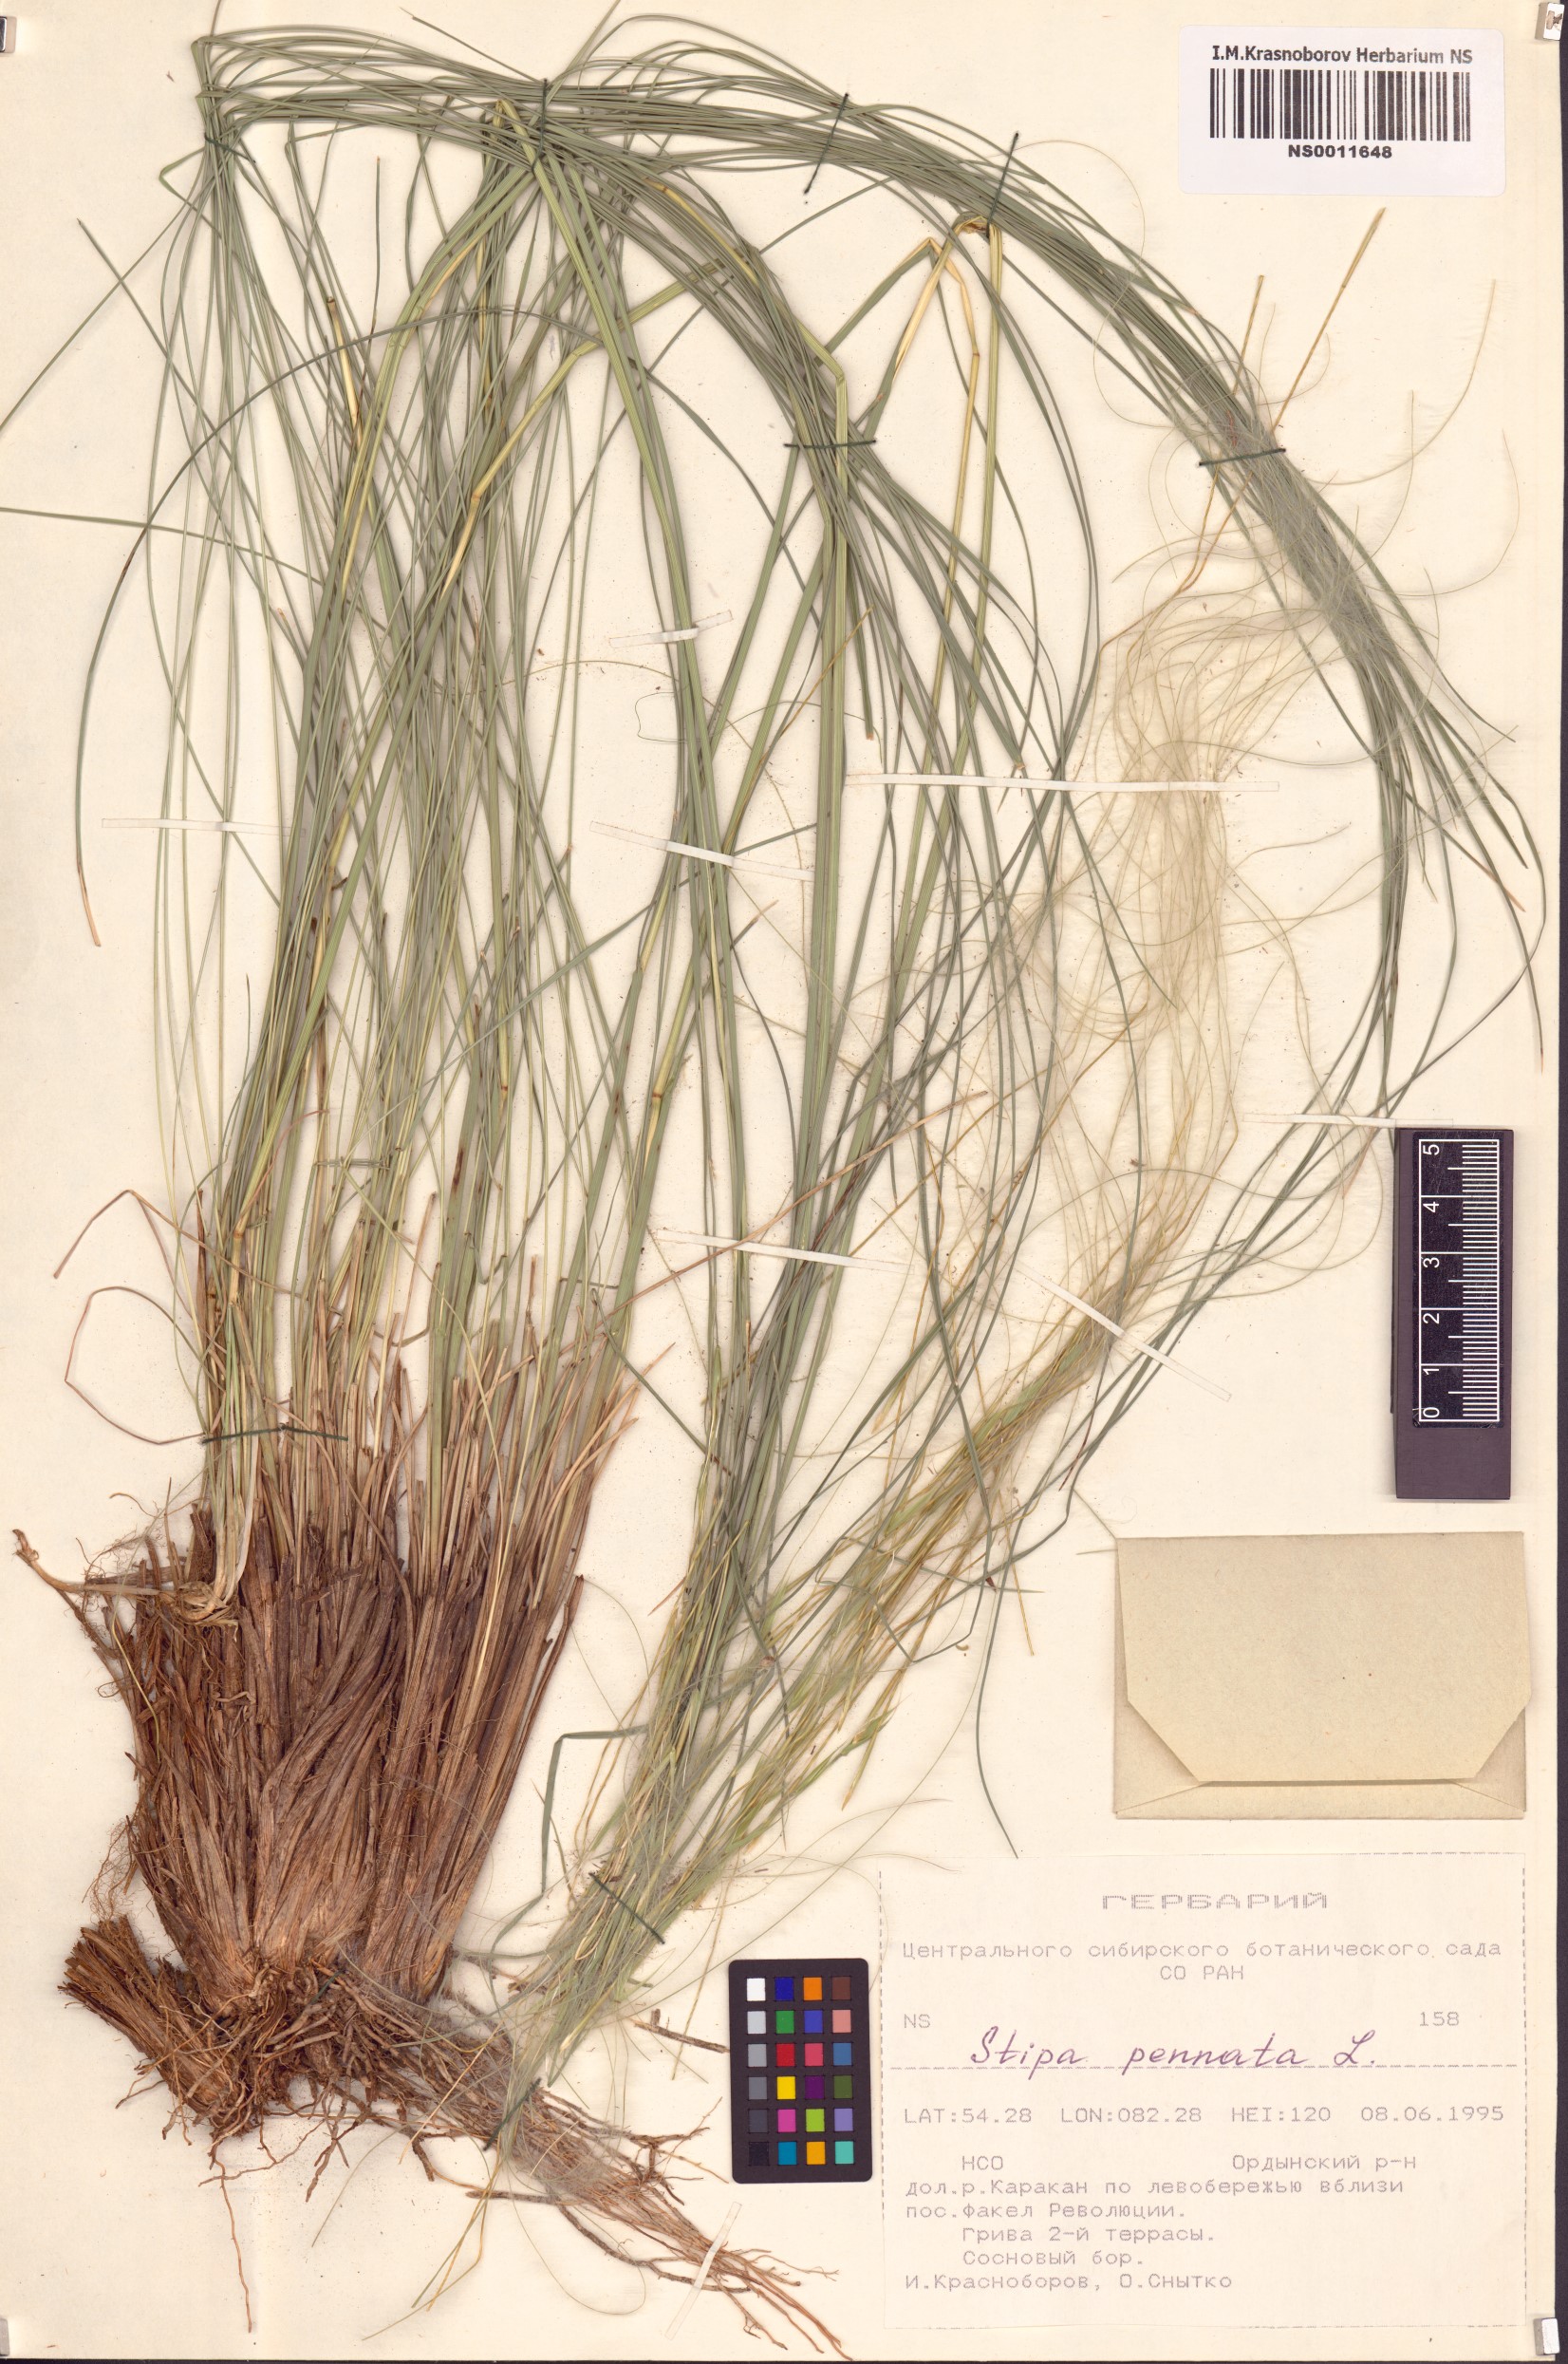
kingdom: Plantae
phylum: Tracheophyta
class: Liliopsida
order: Poales
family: Poaceae
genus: Stipa
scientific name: Stipa pennata
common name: European feather grass
